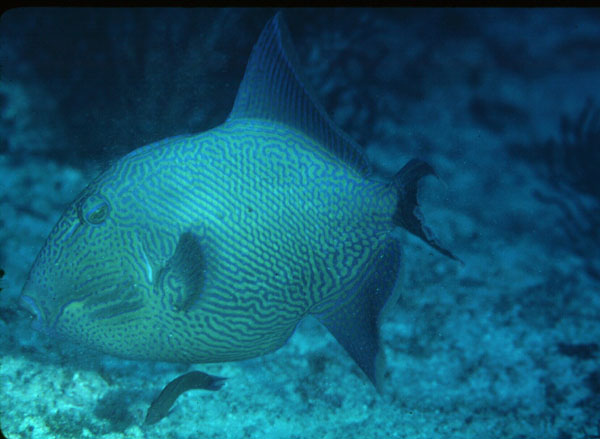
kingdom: Animalia
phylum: Chordata
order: Tetraodontiformes
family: Balistidae
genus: Pseudobalistes
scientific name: Pseudobalistes fuscus
